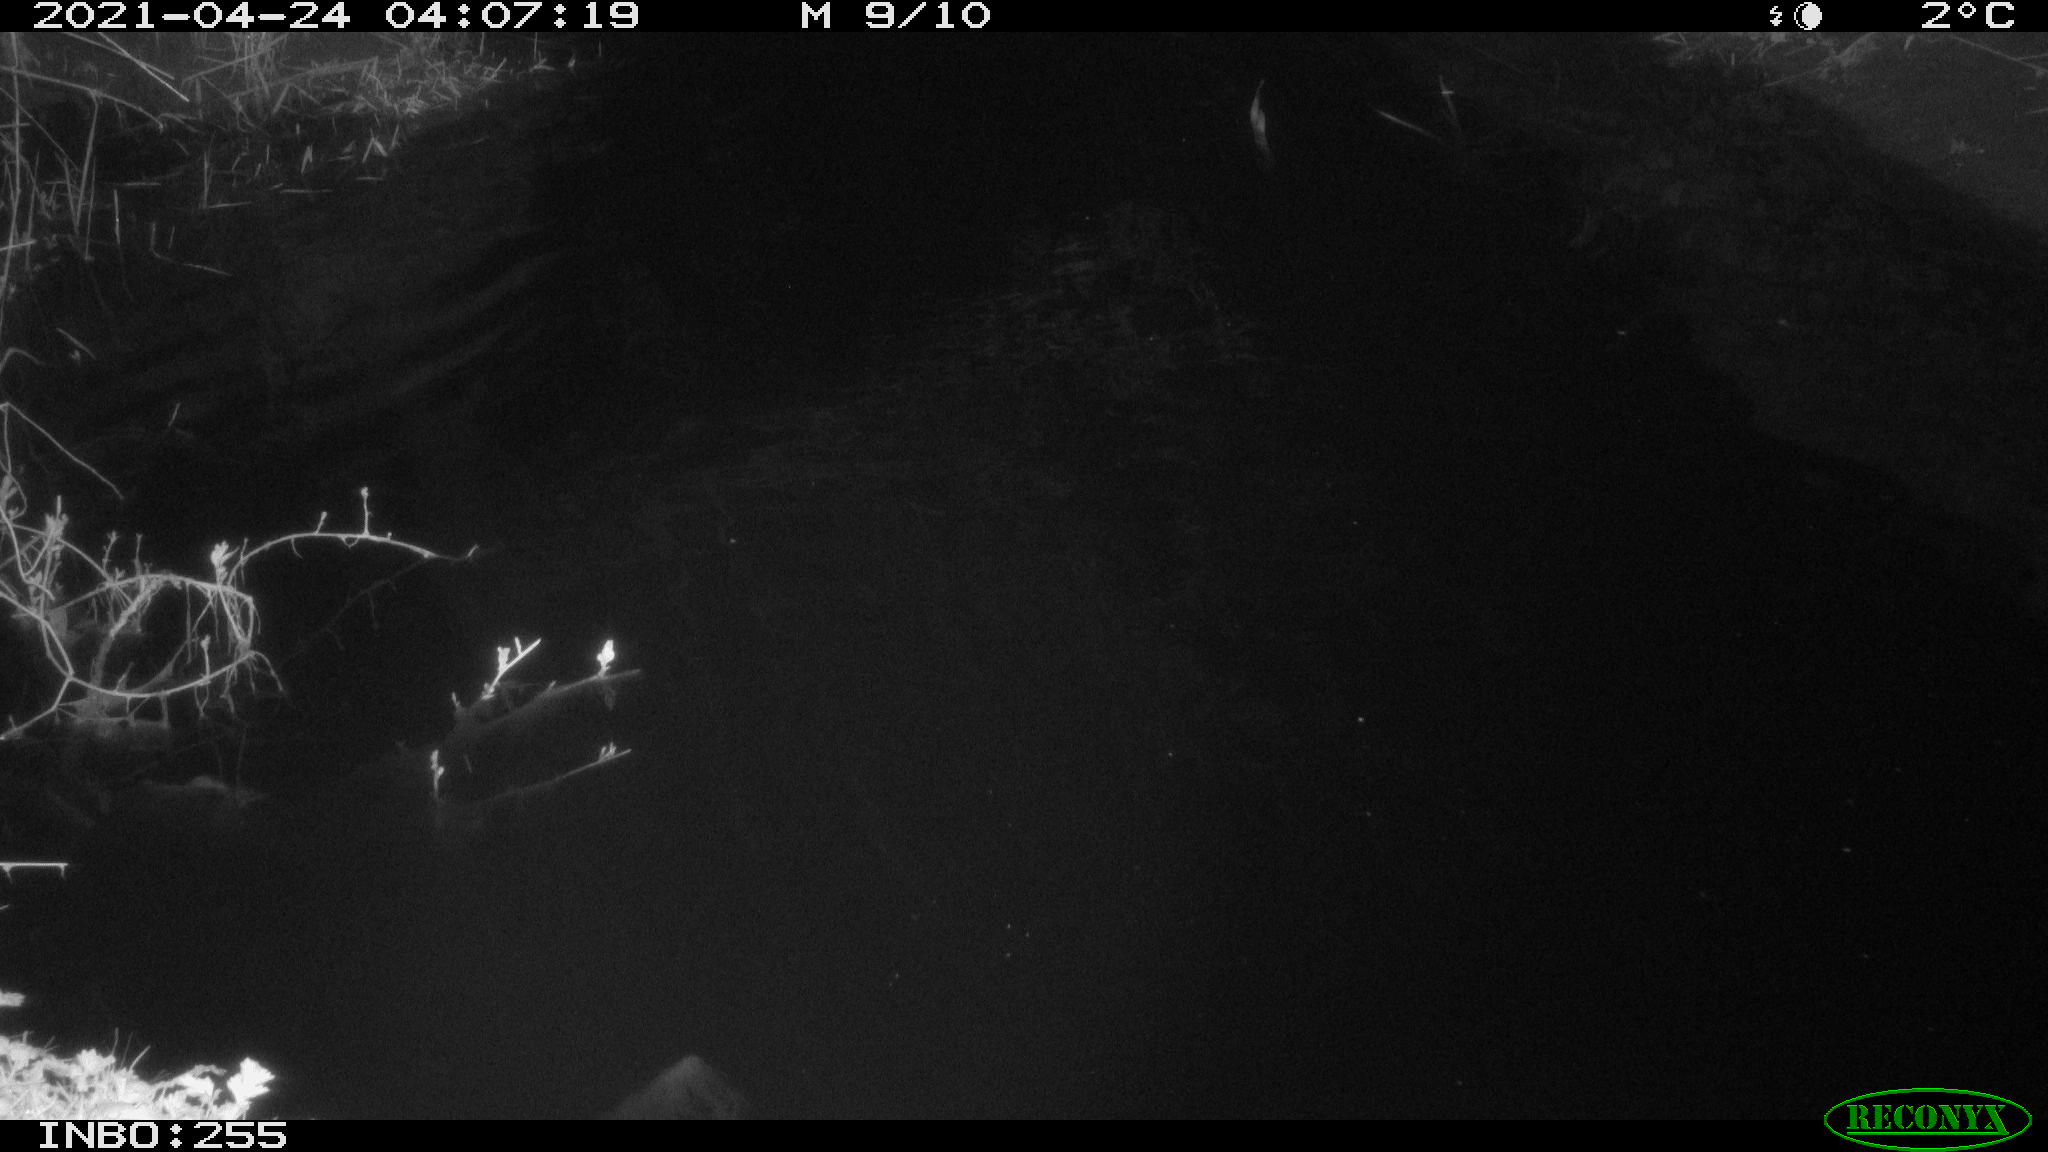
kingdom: Animalia
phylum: Chordata
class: Aves
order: Anseriformes
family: Anatidae
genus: Anas
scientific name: Anas platyrhynchos
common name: Mallard
